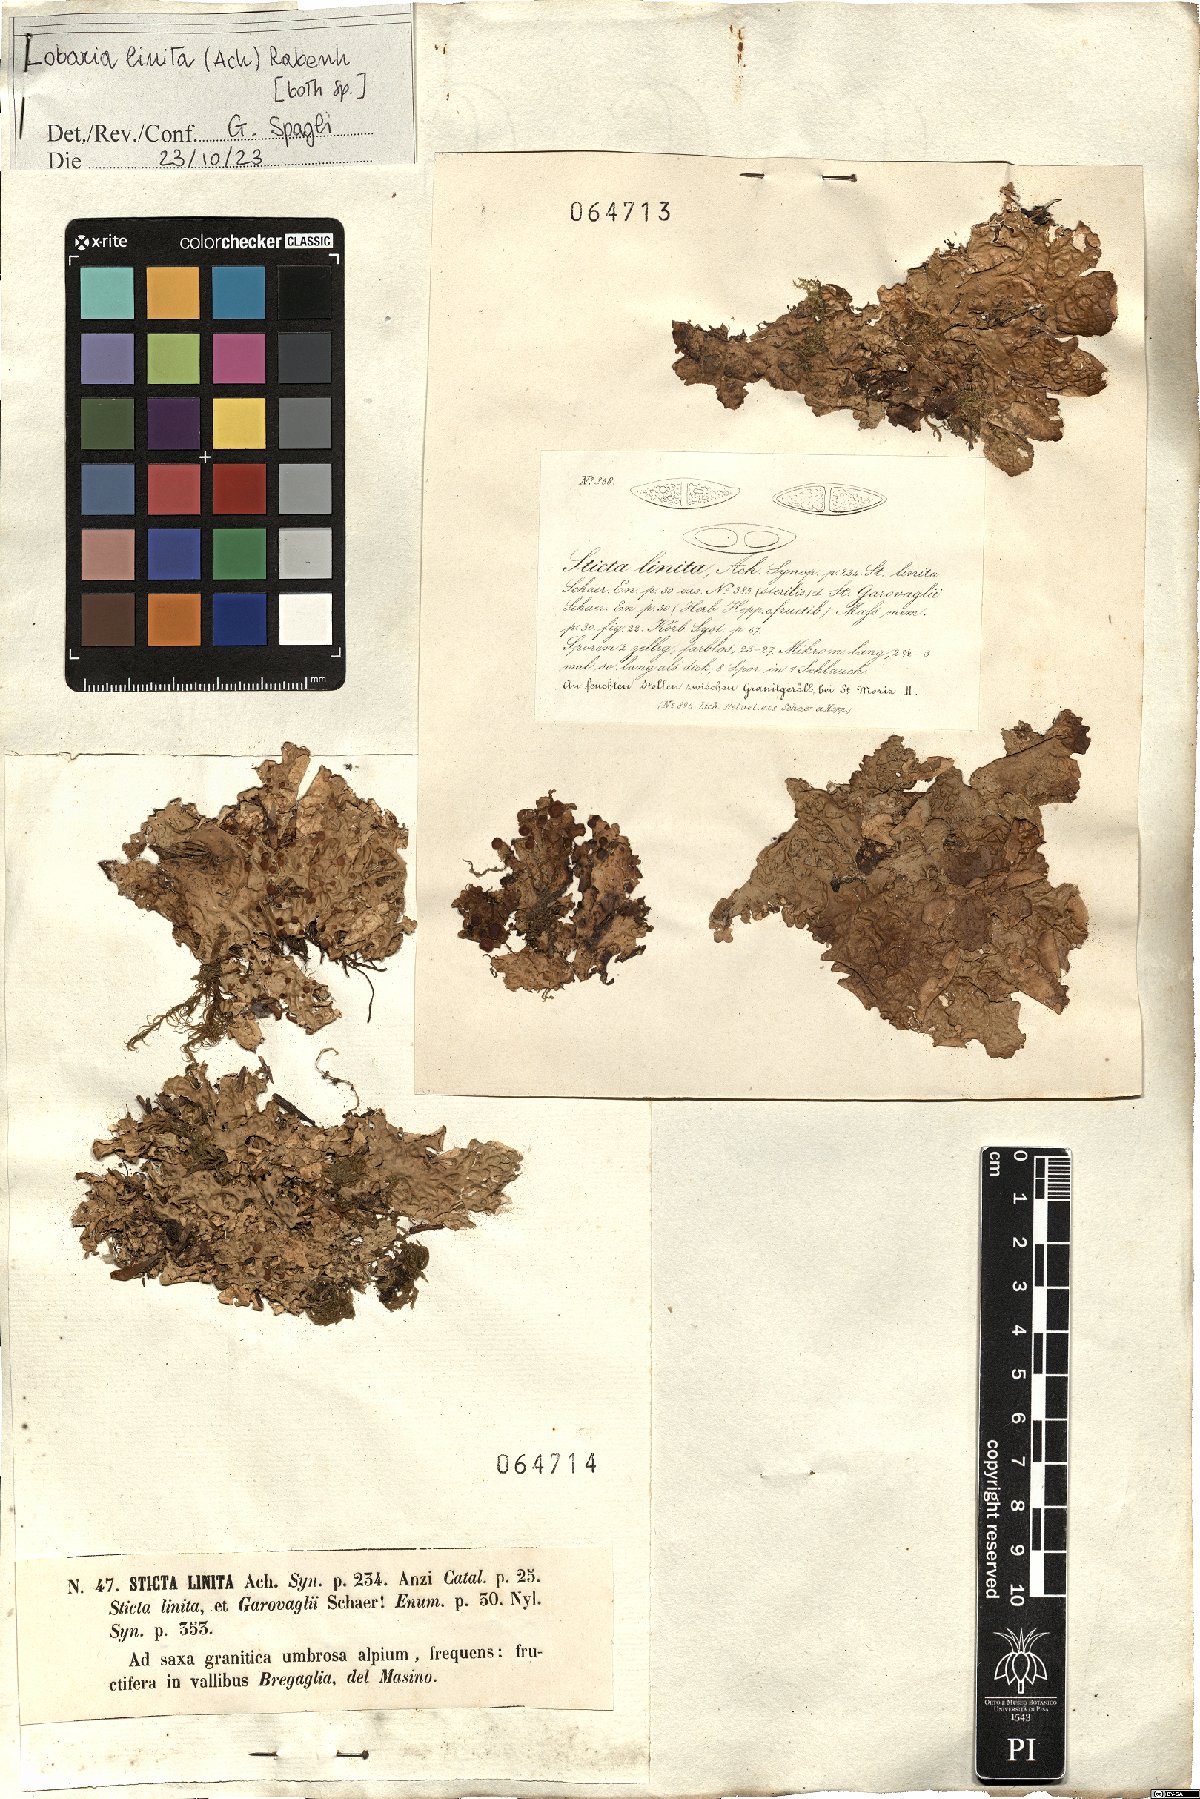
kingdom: Fungi
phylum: Ascomycota
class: Lecanoromycetes
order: Peltigerales
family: Lobariaceae
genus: Lobaria
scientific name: Lobaria linita
